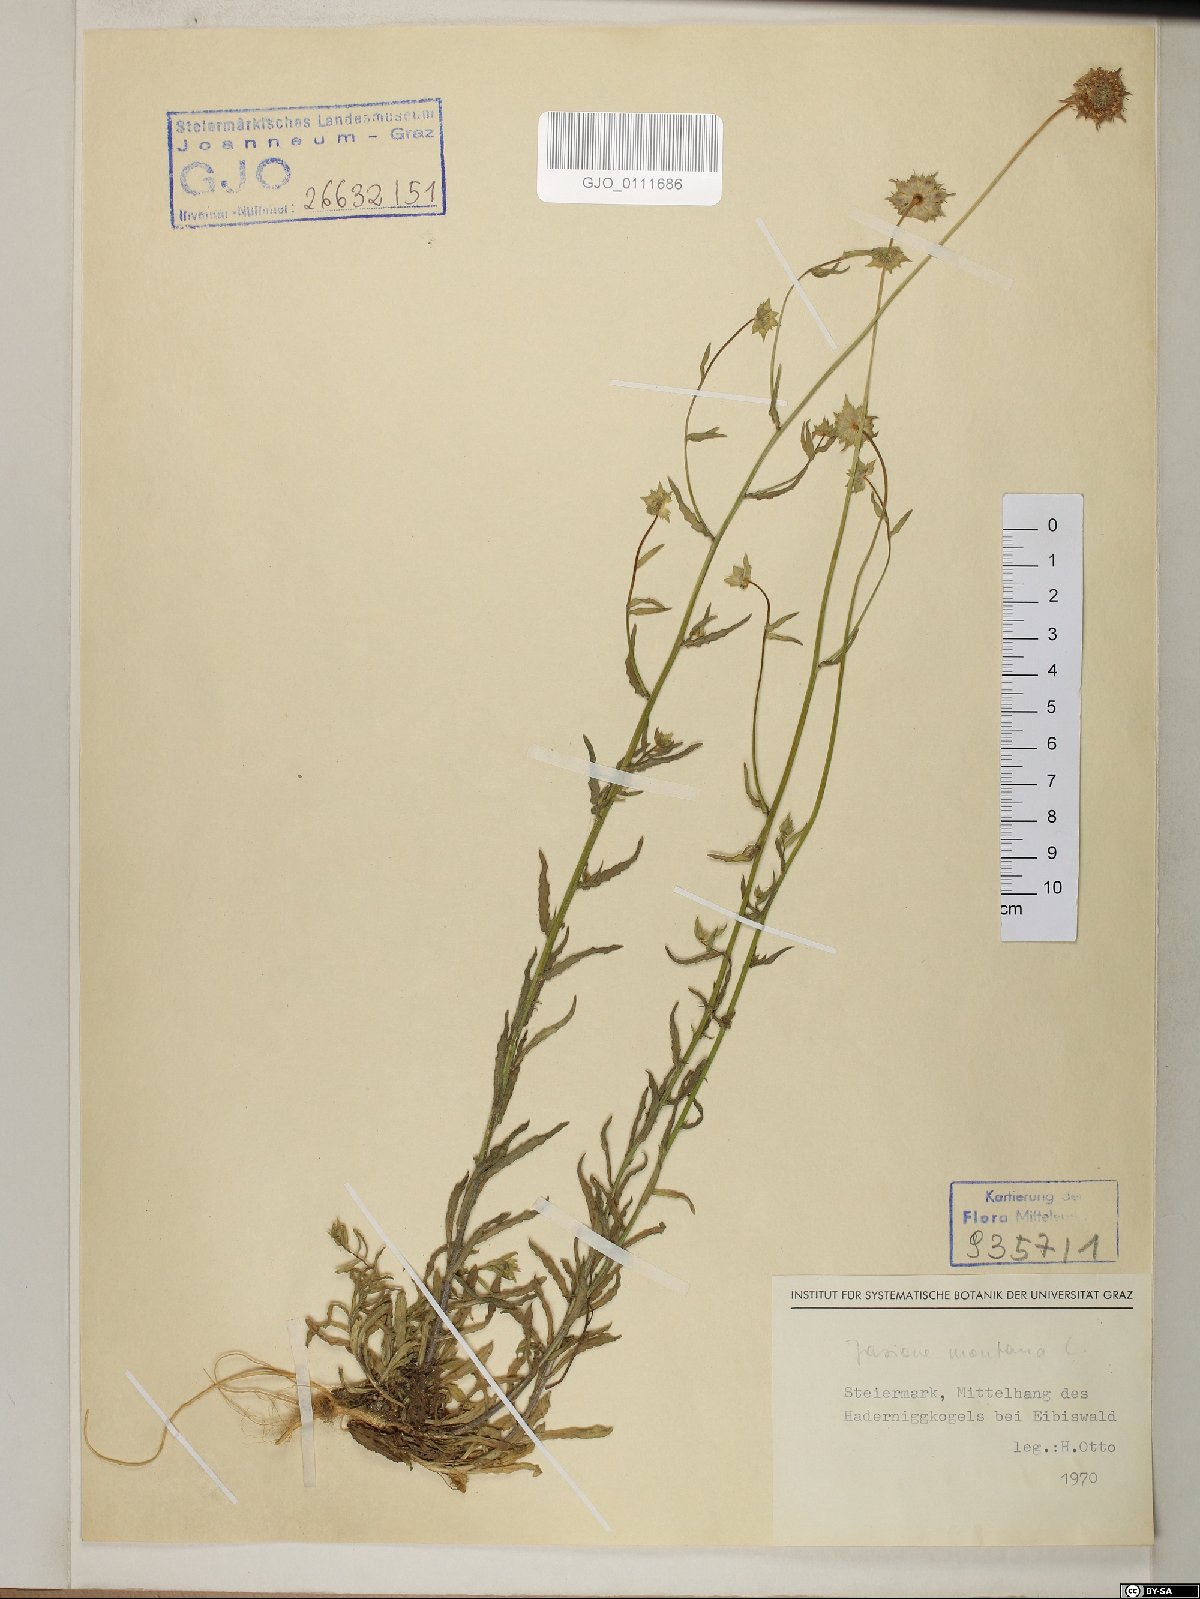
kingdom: Plantae
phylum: Tracheophyta
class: Magnoliopsida
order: Asterales
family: Campanulaceae
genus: Jasione
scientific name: Jasione montana
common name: Sheep's-bit
